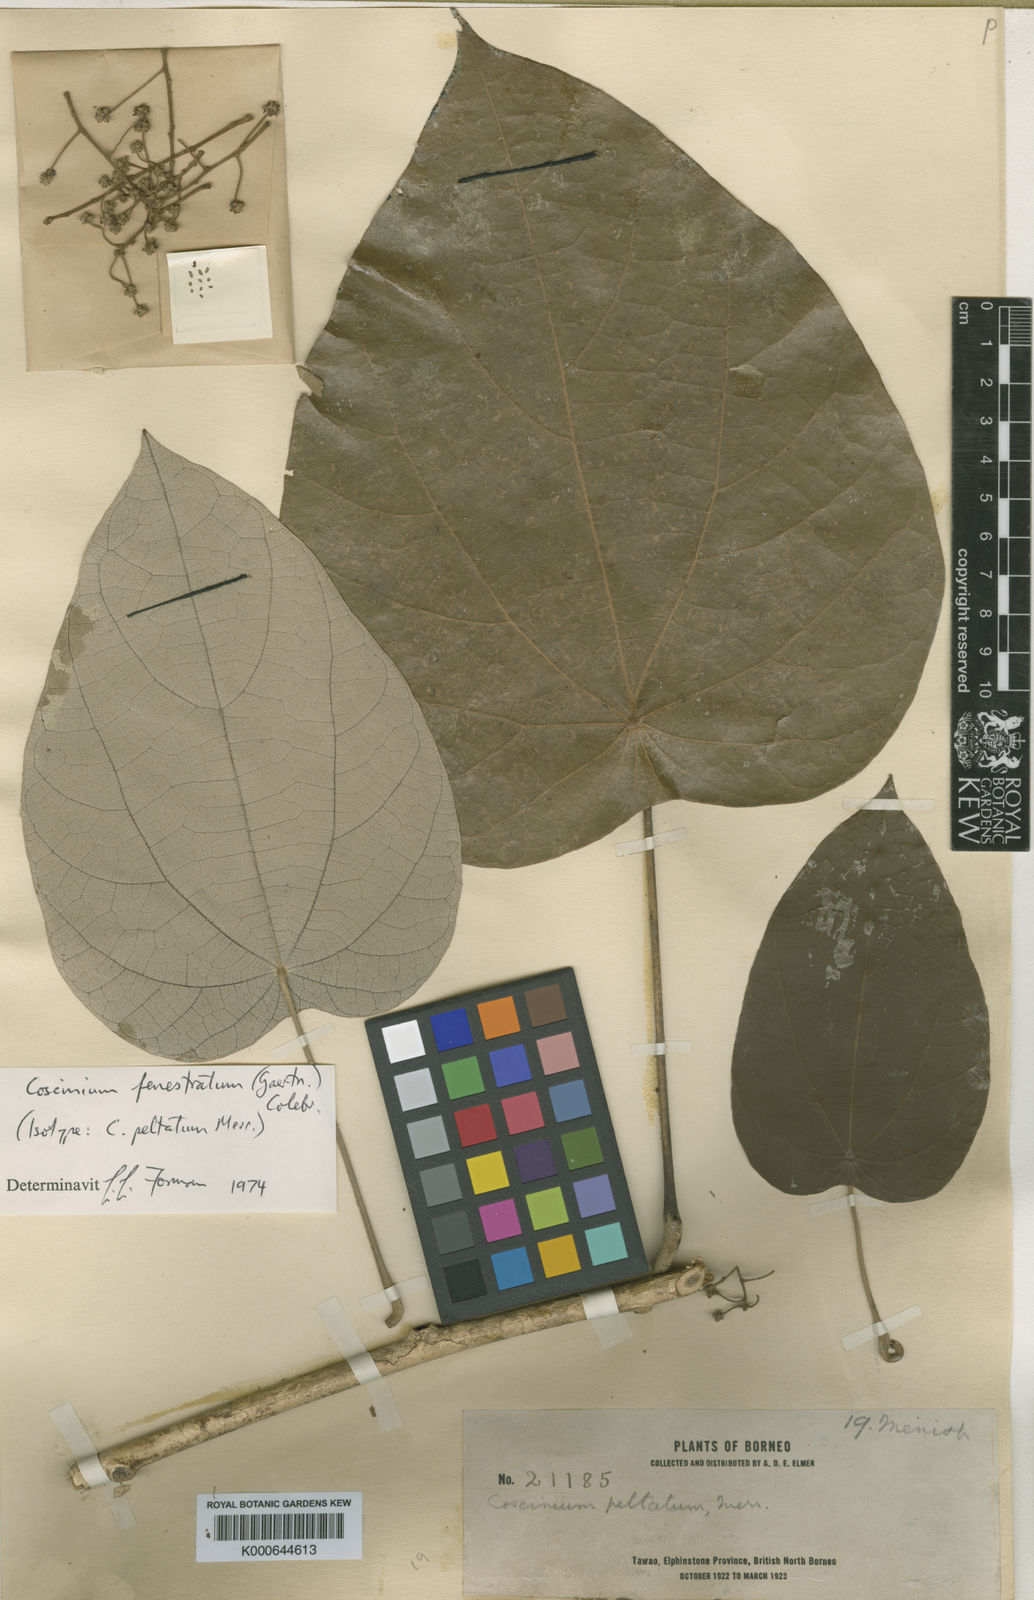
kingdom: Plantae
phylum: Tracheophyta
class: Magnoliopsida
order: Ranunculales
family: Menispermaceae
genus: Coscinium
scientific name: Coscinium fenestratum
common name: False calumba
